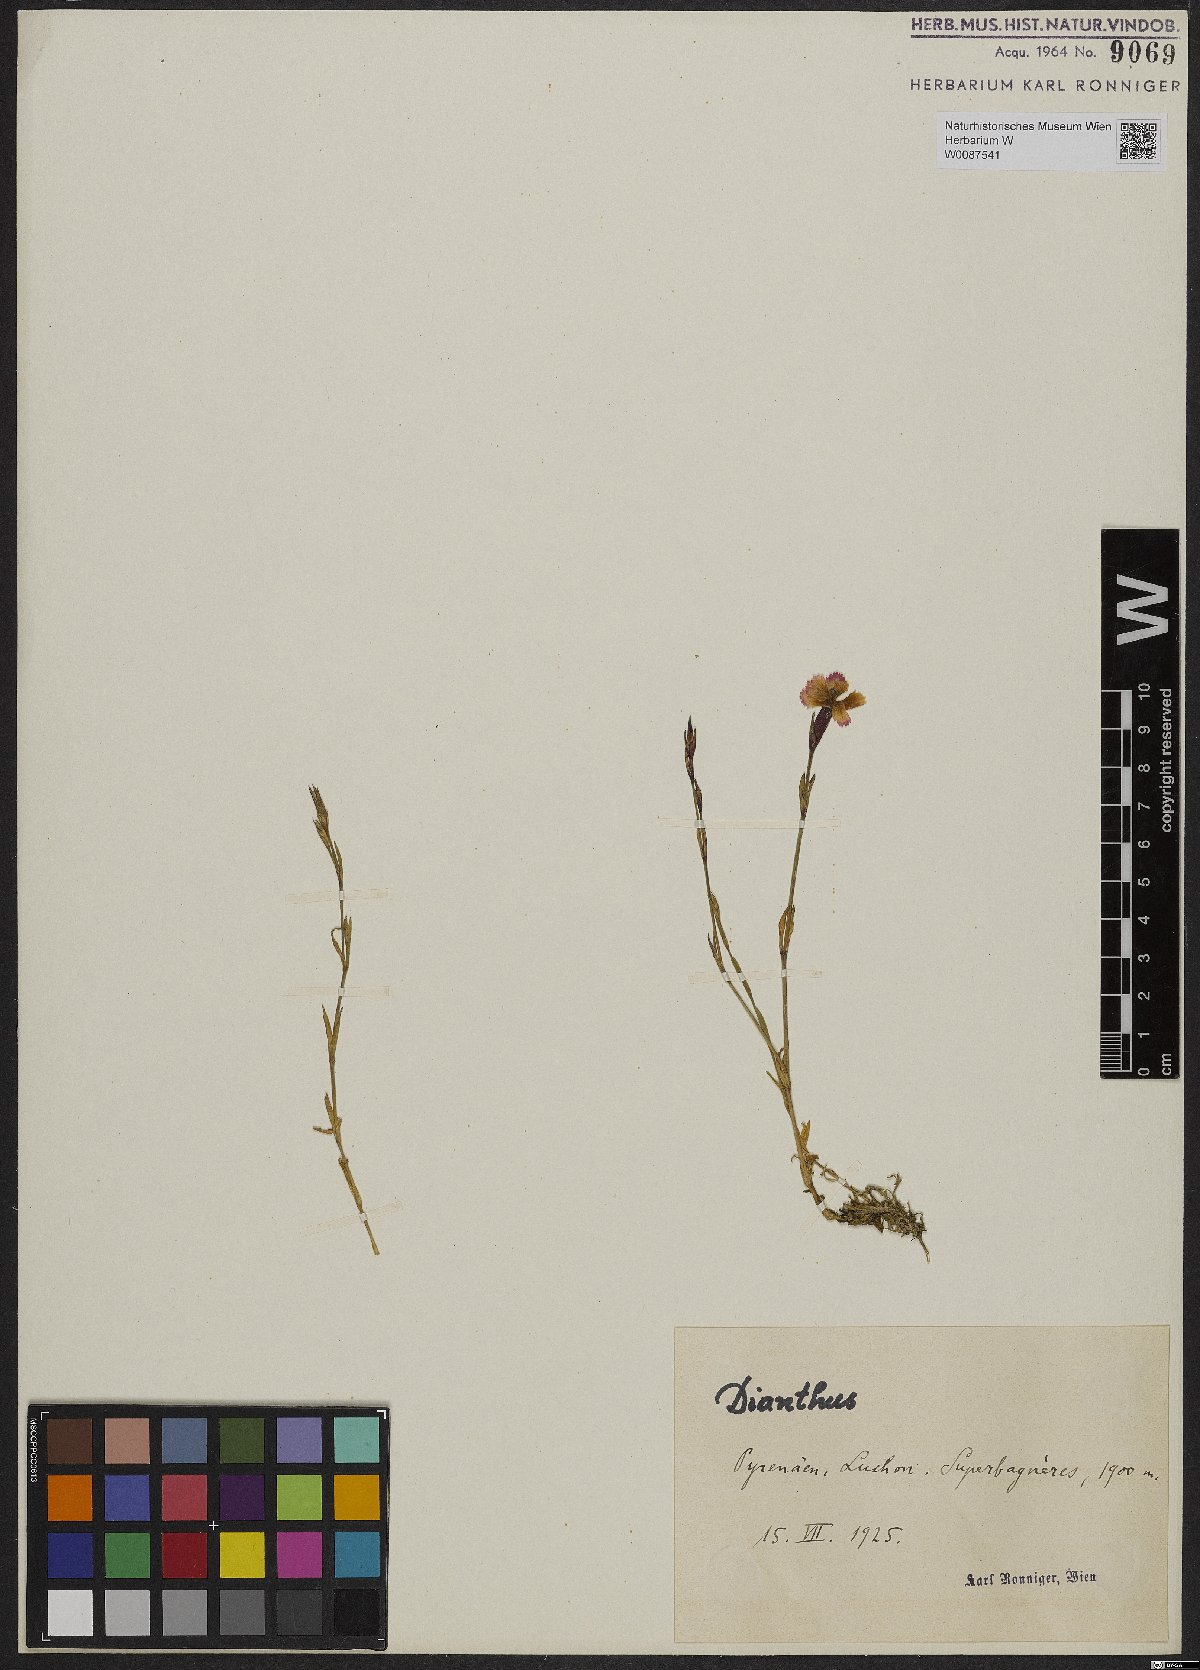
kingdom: Plantae
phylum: Tracheophyta
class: Magnoliopsida
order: Caryophyllales
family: Caryophyllaceae
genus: Dianthus
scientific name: Dianthus
